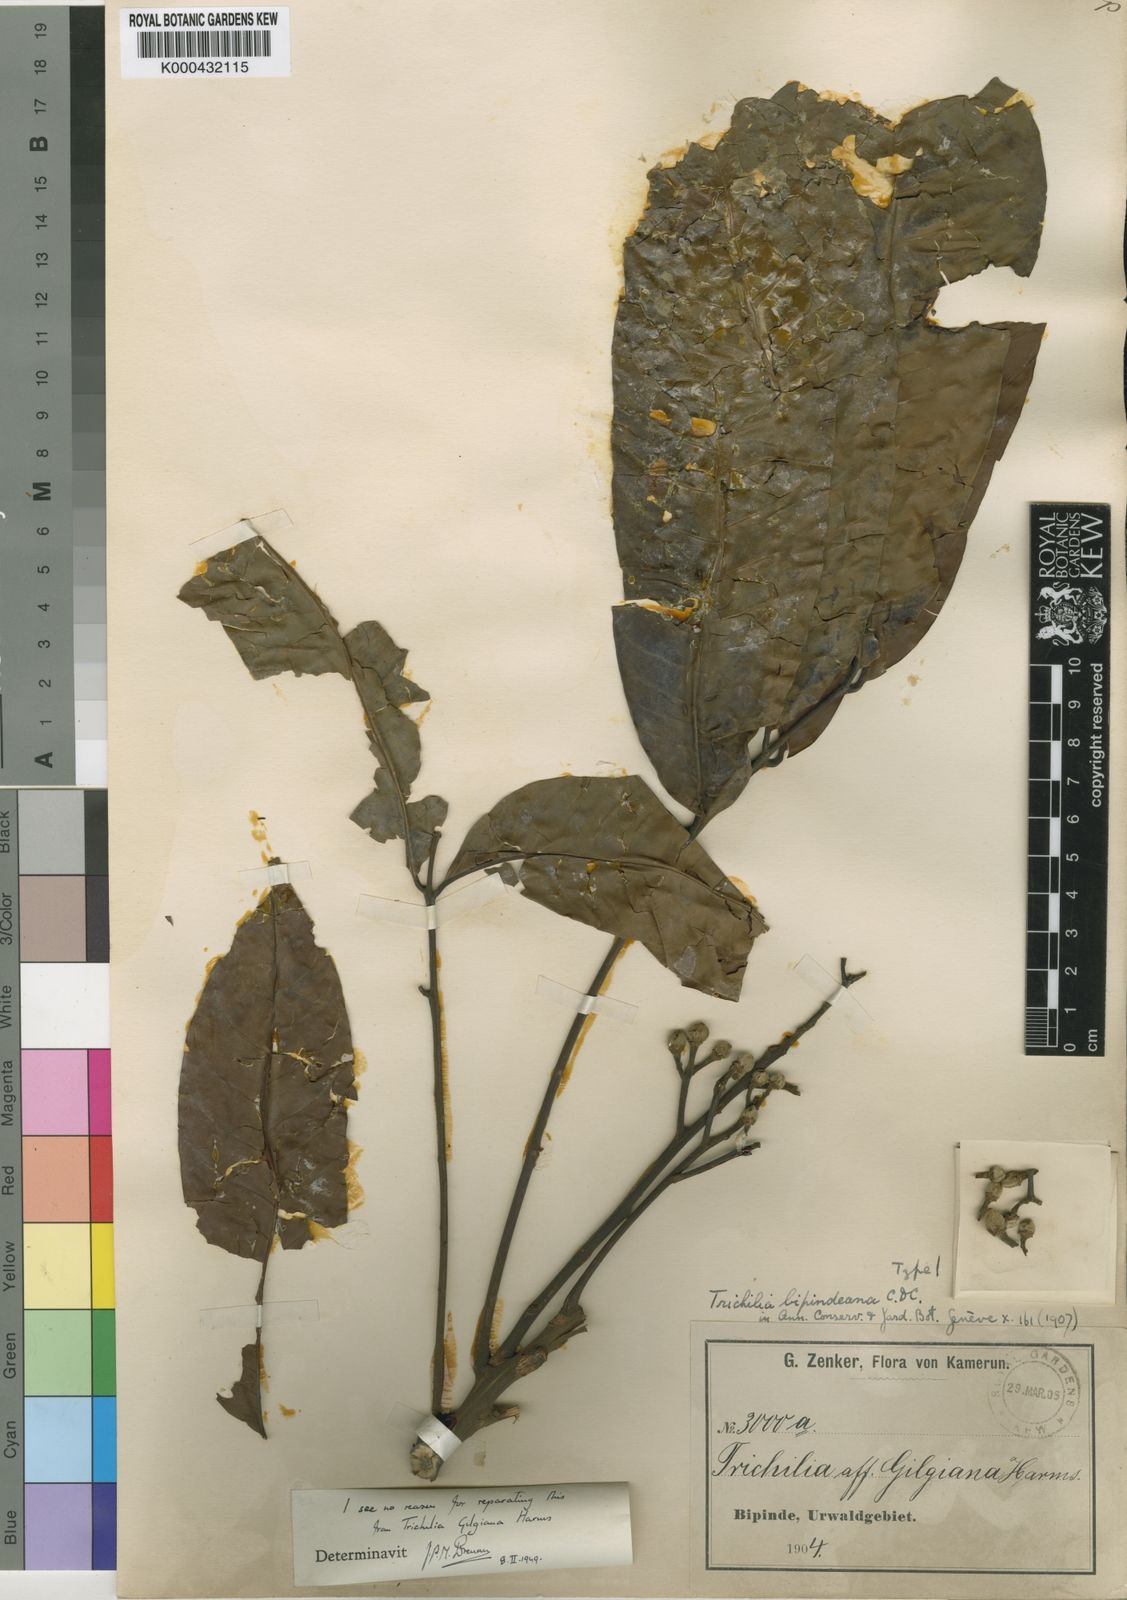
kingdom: Plantae
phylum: Tracheophyta
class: Magnoliopsida
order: Sapindales
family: Meliaceae
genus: Trichilia
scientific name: Trichilia gilgiana
